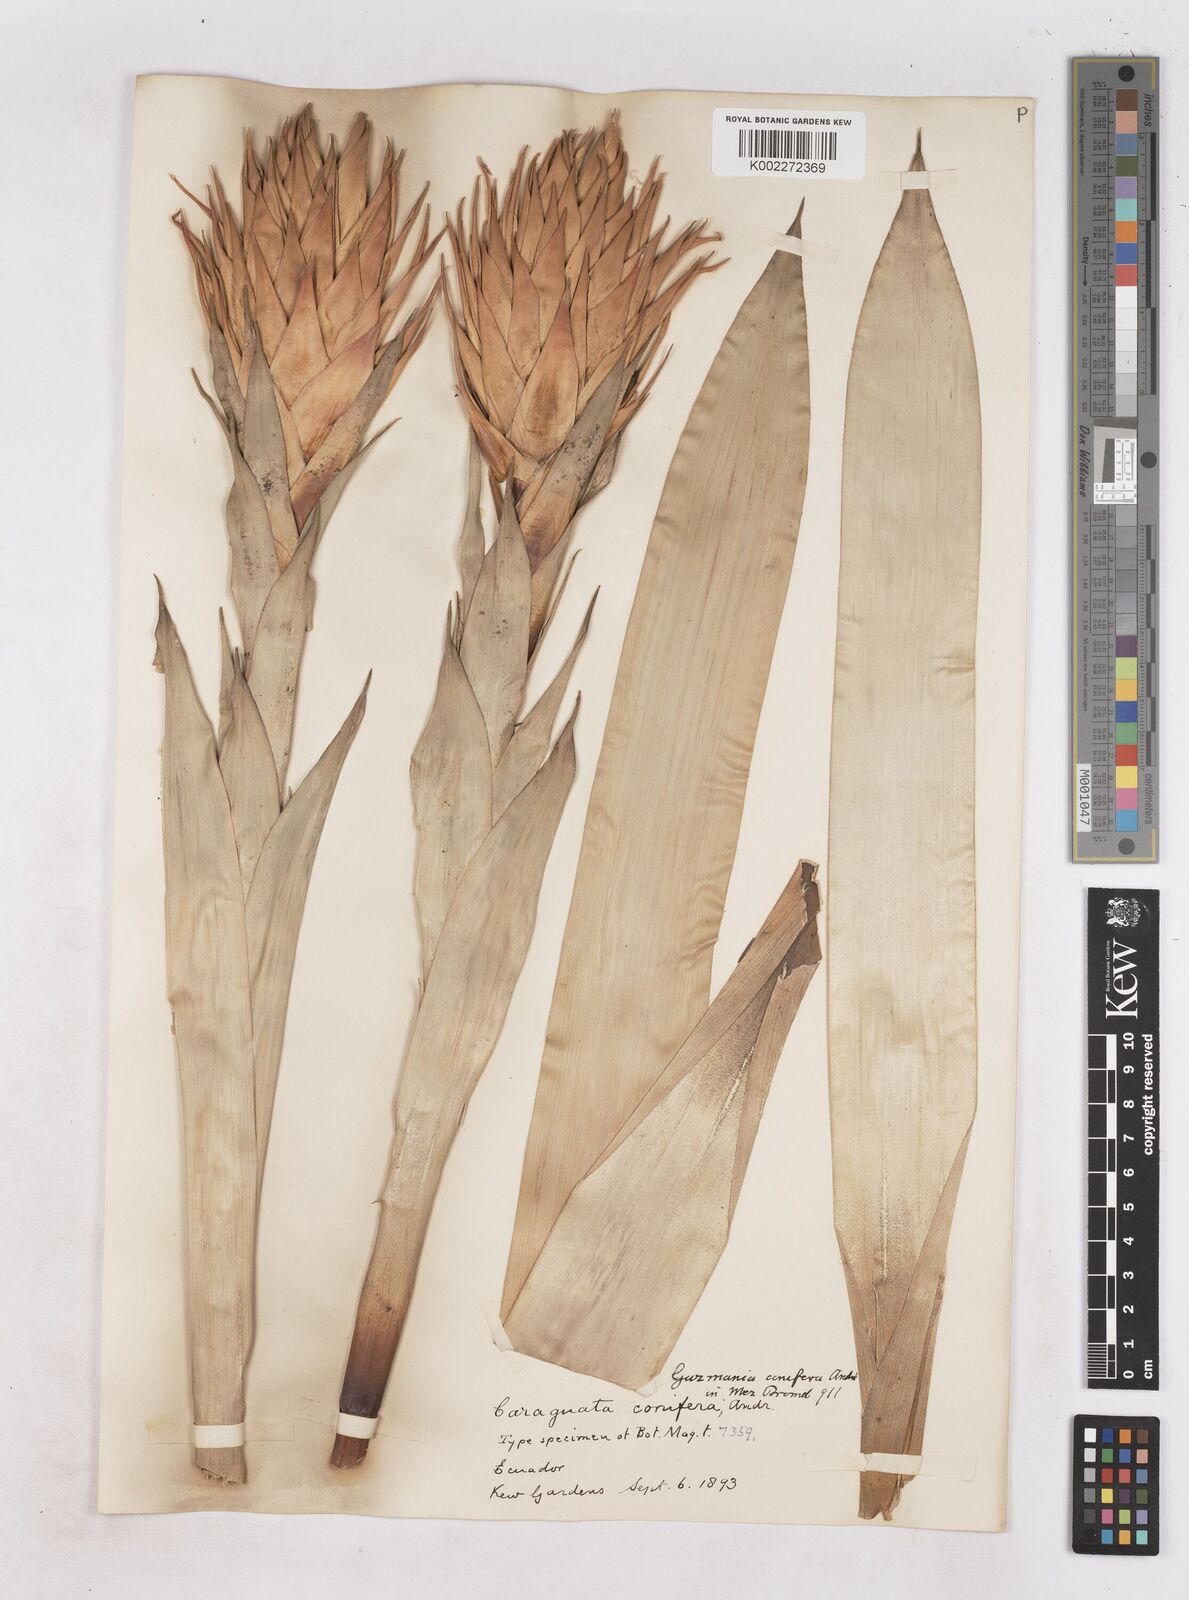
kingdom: Plantae
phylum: Tracheophyta
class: Liliopsida
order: Poales
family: Bromeliaceae
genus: Guzmania
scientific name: Guzmania conifera
